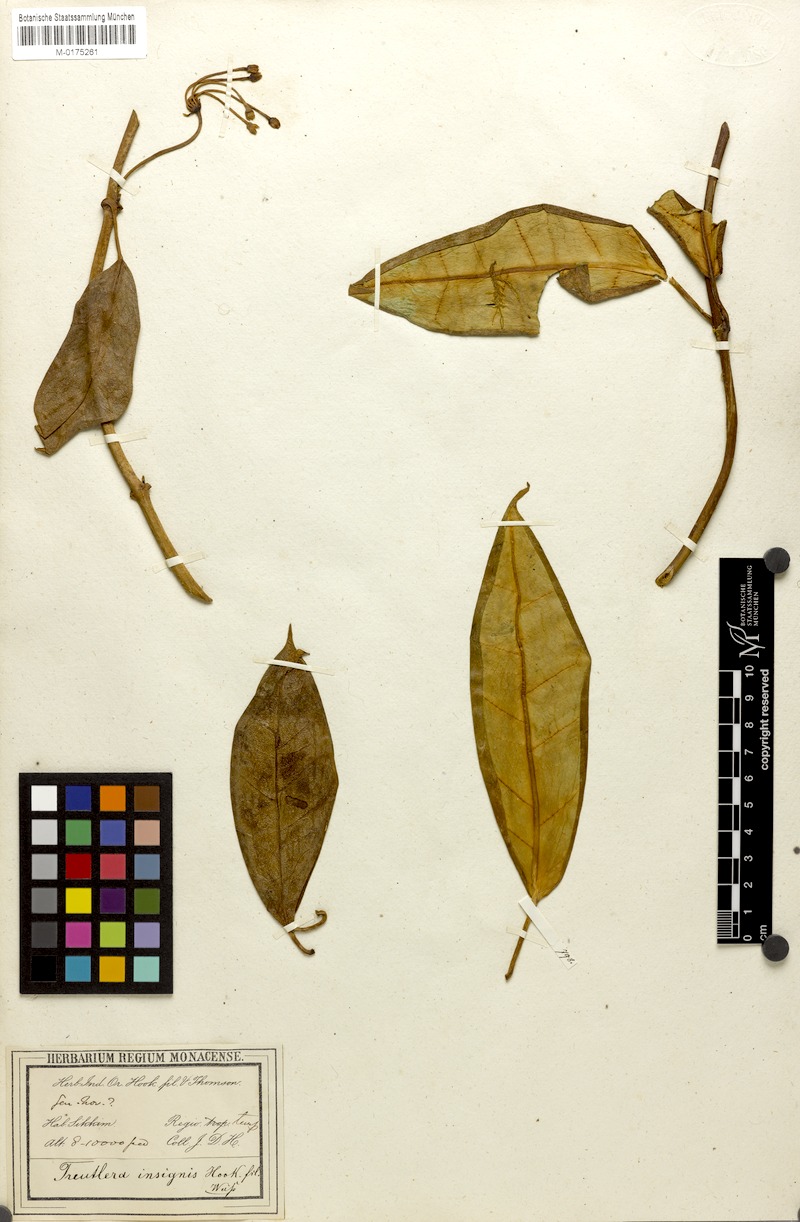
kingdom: Plantae
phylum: Tracheophyta
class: Magnoliopsida
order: Gentianales
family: Apocynaceae
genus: Treutlera
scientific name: Treutlera insignis
